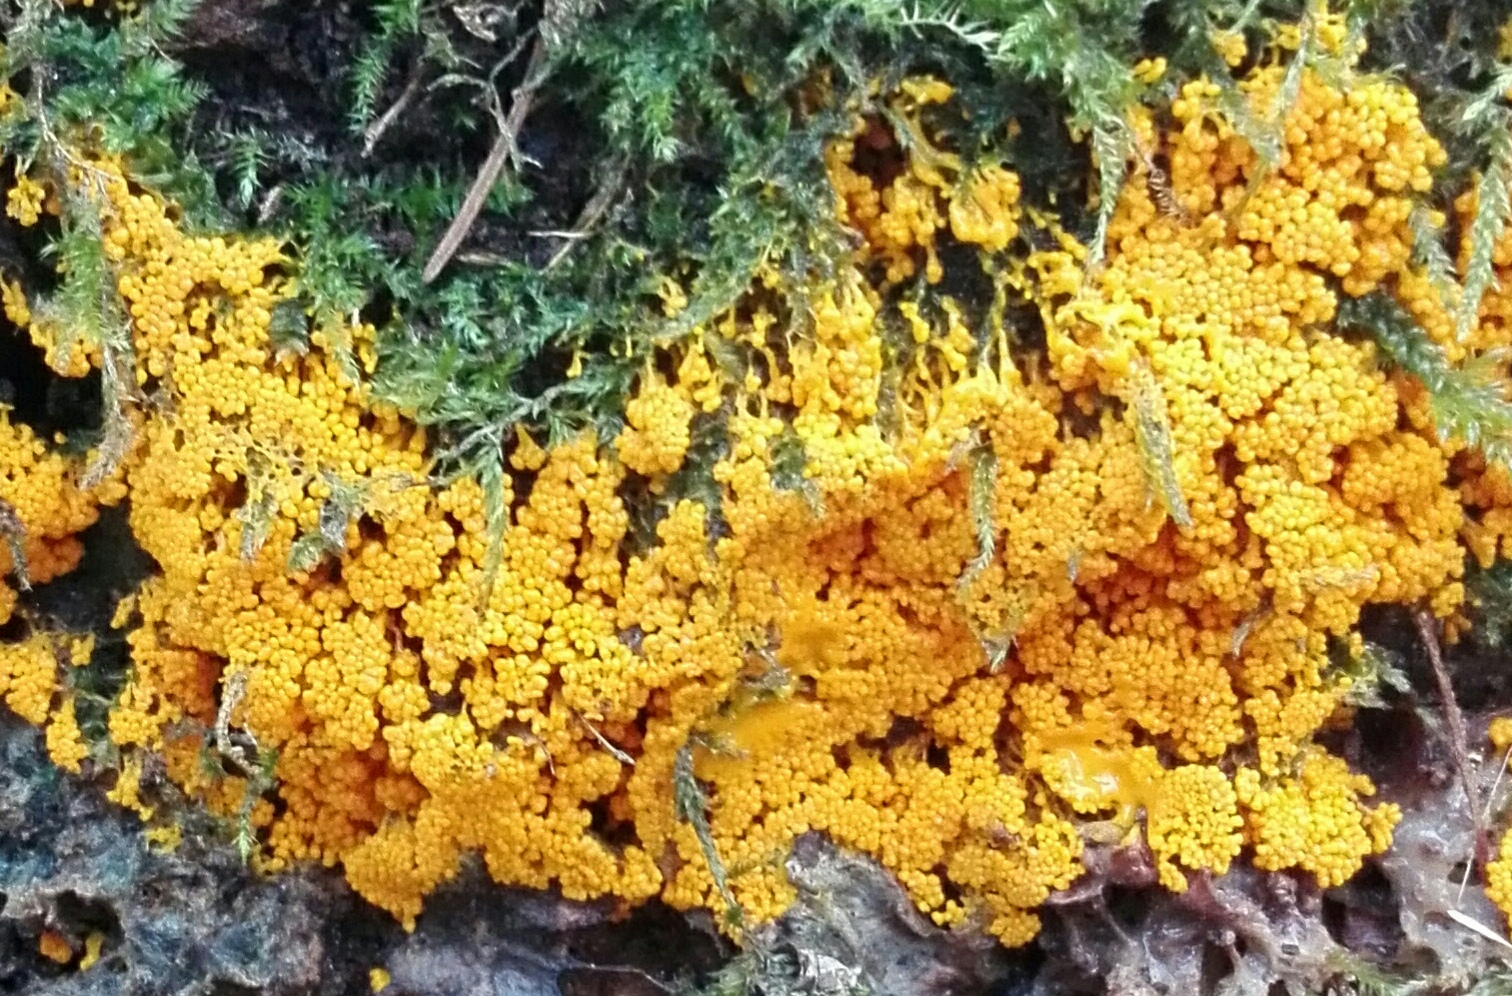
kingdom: Protozoa
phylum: Mycetozoa
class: Myxomycetes
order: Physarales
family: Physaraceae
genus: Badhamia
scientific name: Badhamia utricularis
